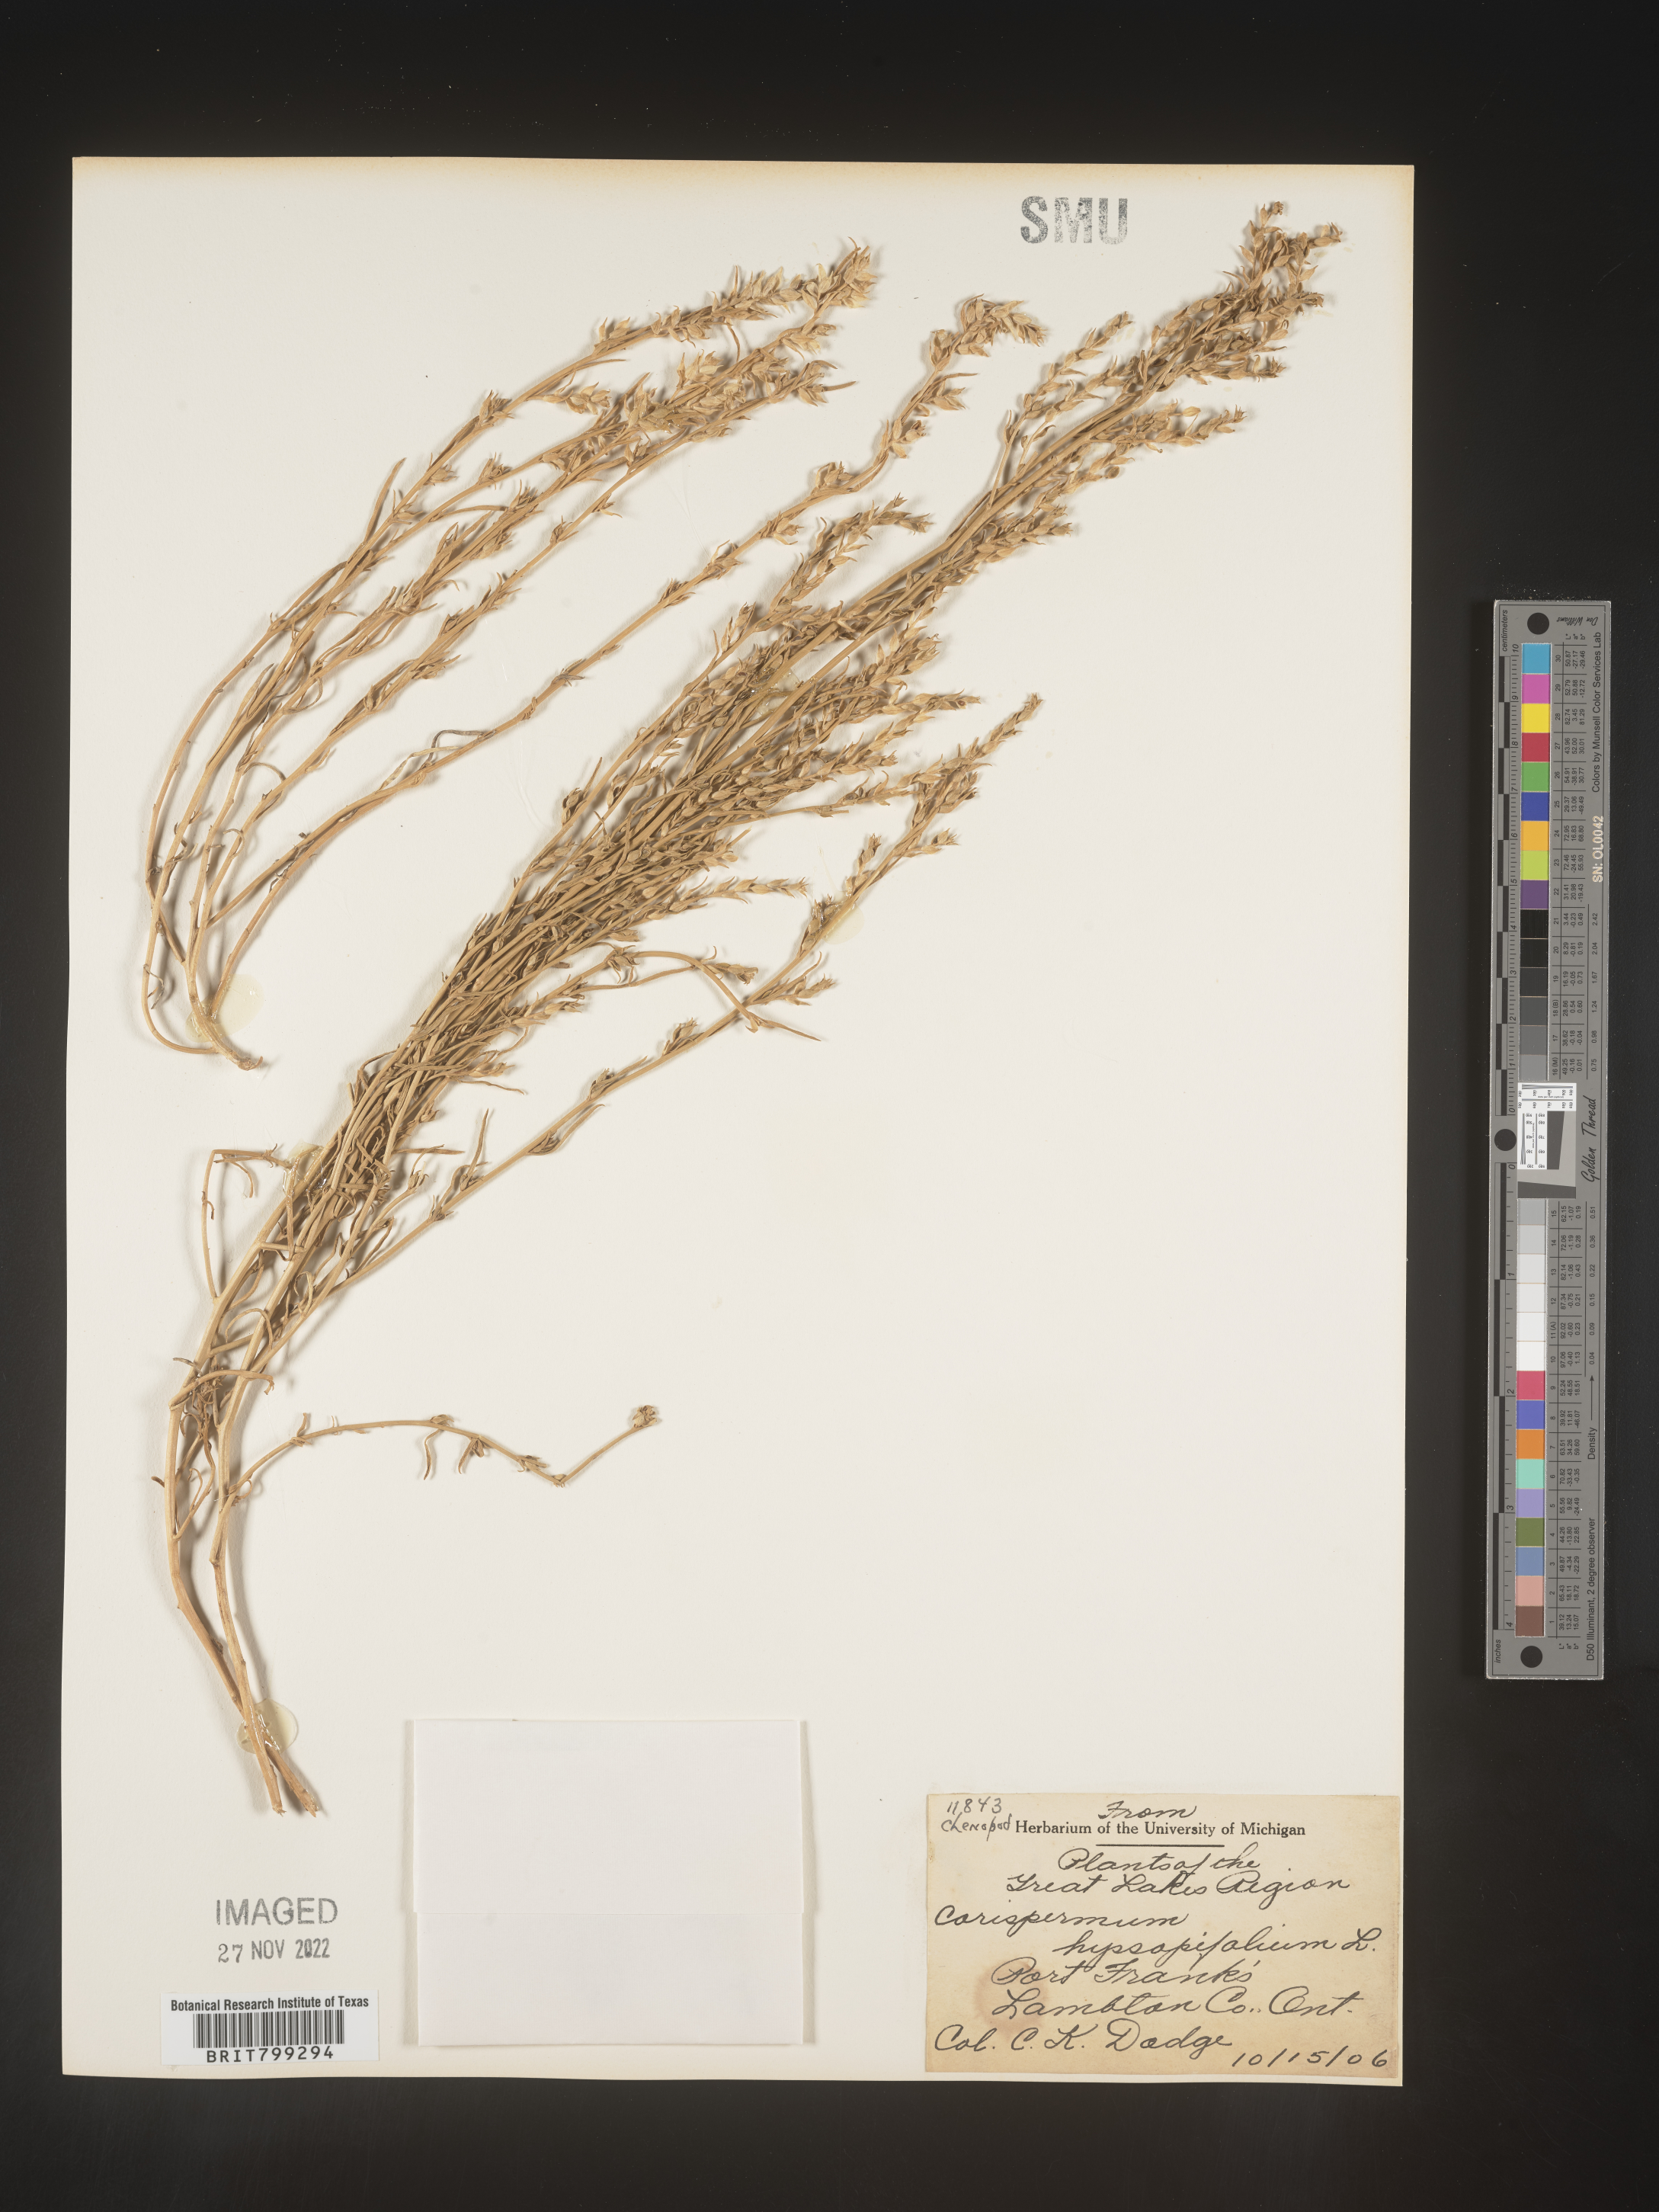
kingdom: Plantae
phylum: Tracheophyta
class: Magnoliopsida
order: Caryophyllales
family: Amaranthaceae
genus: Corispermum
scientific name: Corispermum americanum
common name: American bugseed
